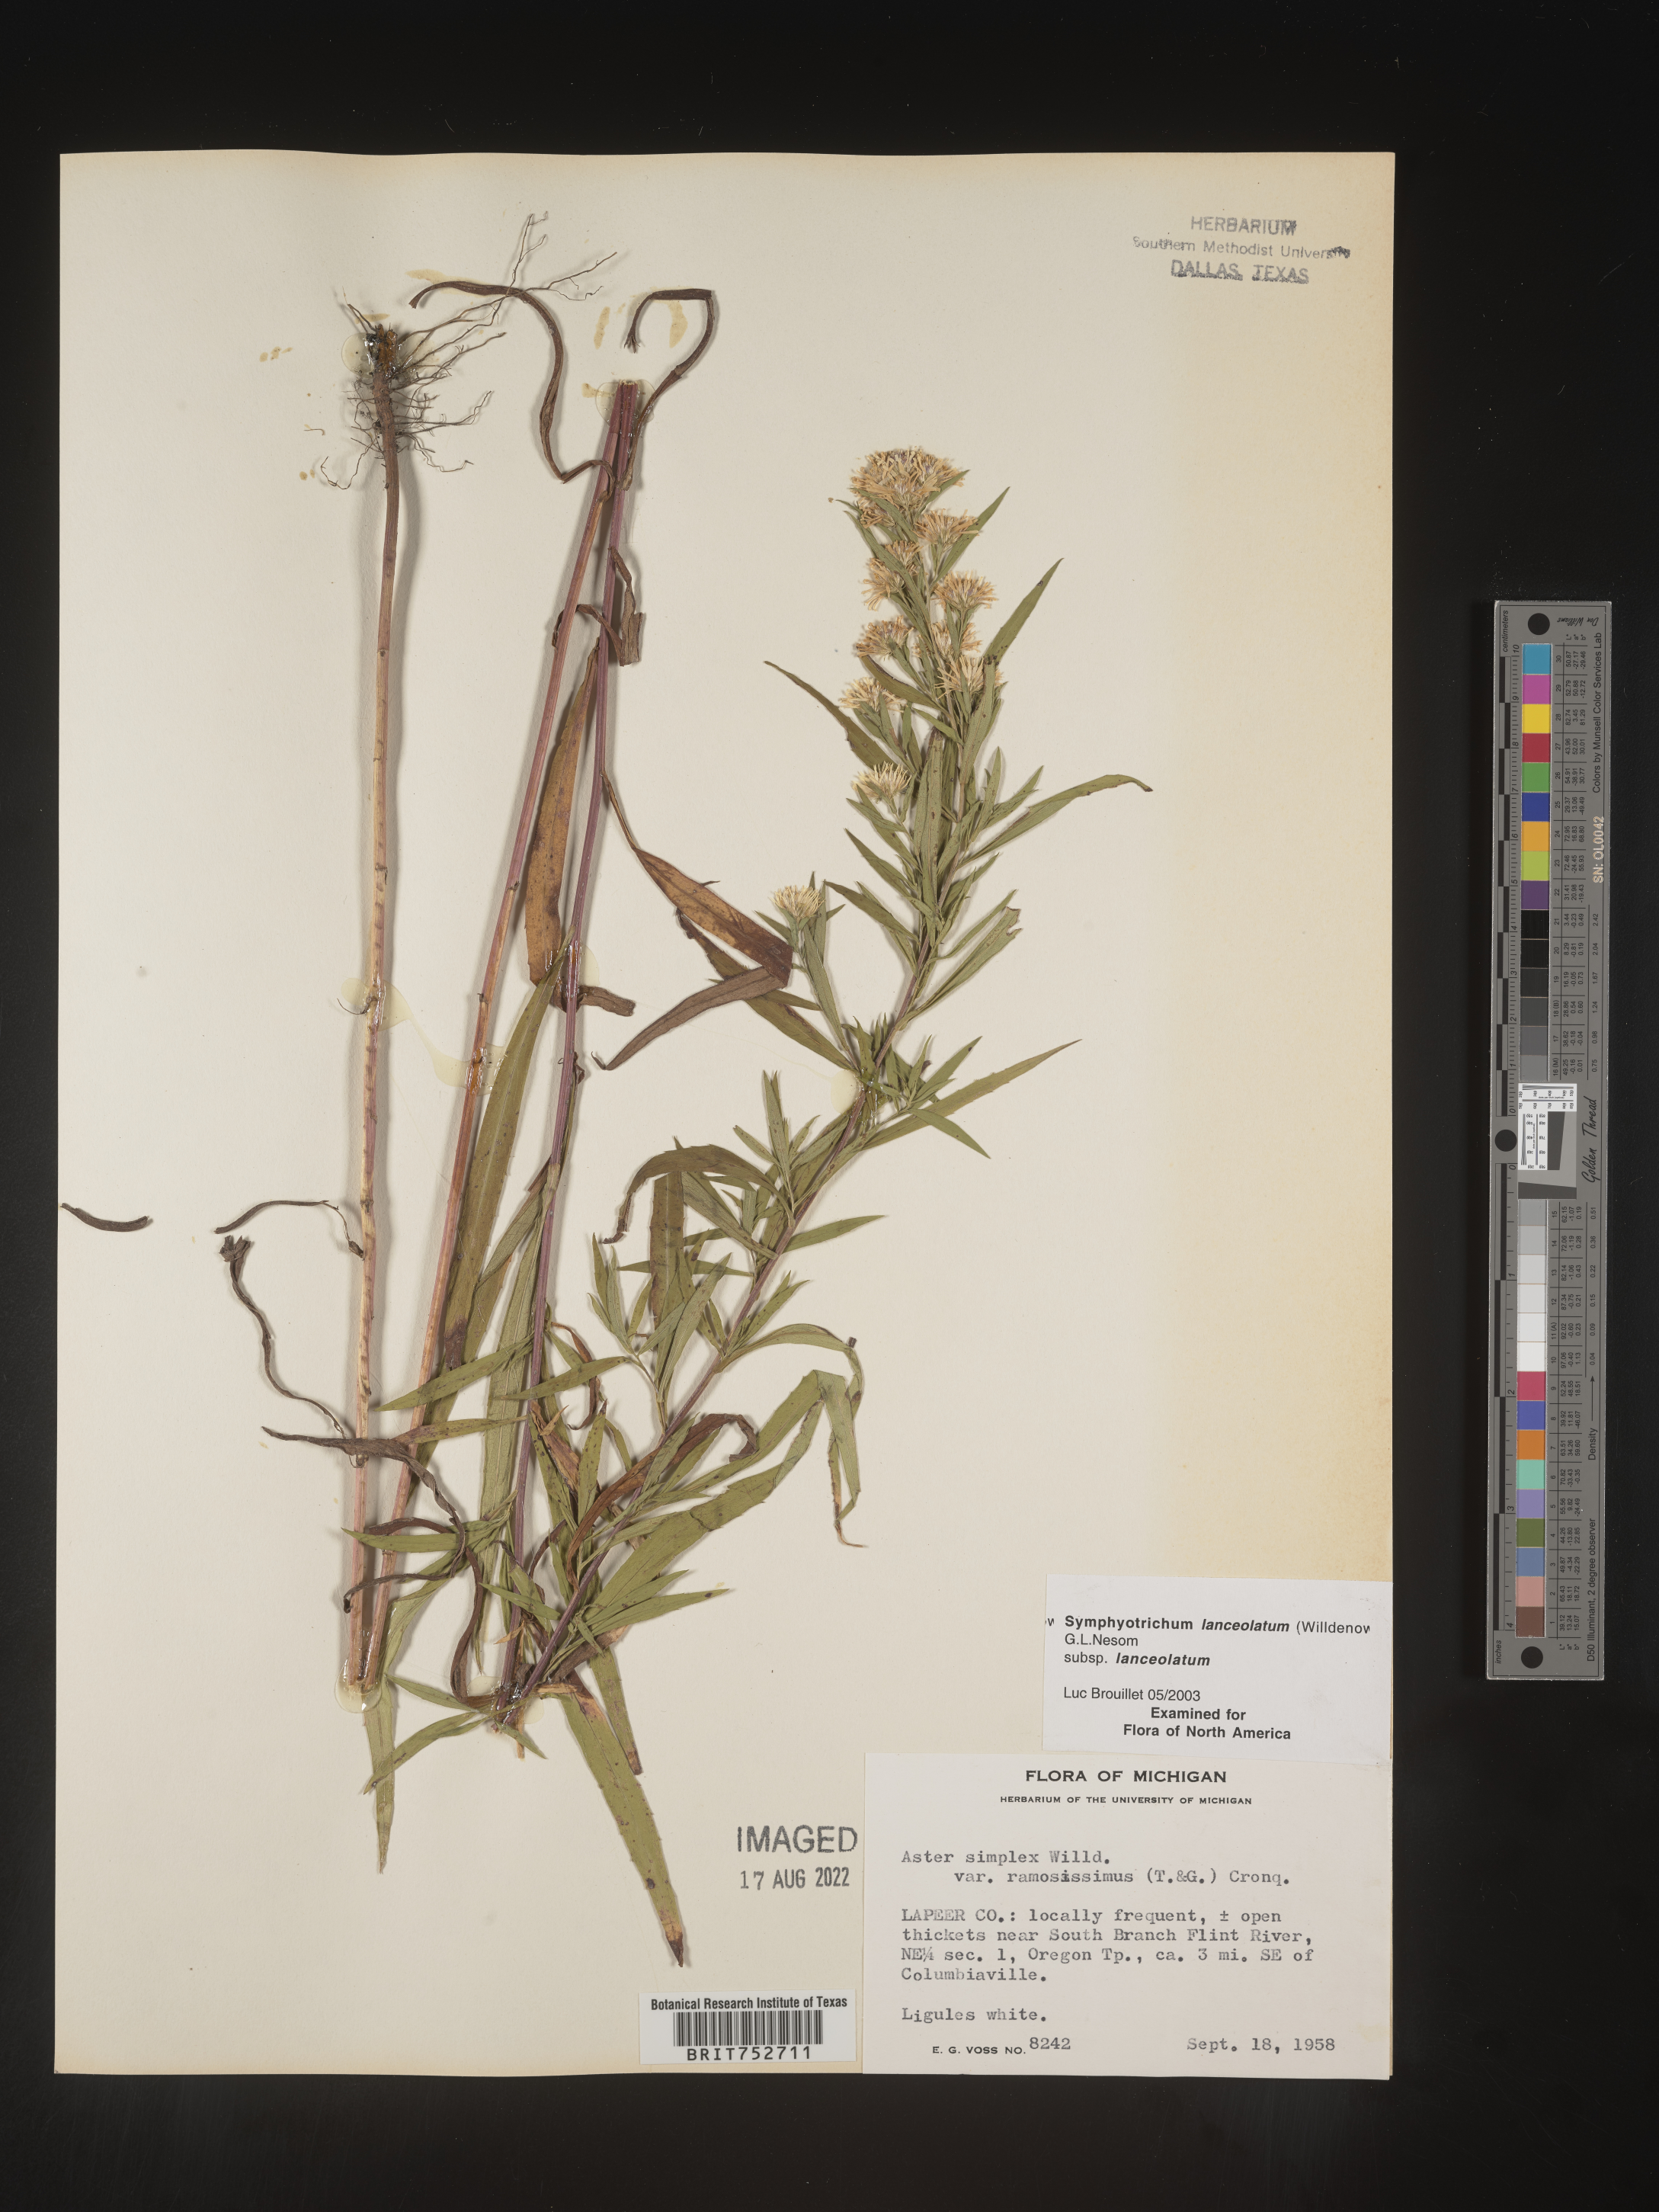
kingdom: Plantae
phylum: Tracheophyta
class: Magnoliopsida
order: Asterales
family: Asteraceae
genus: Symphyotrichum
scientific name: Symphyotrichum lanceolatum
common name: Panicled aster
